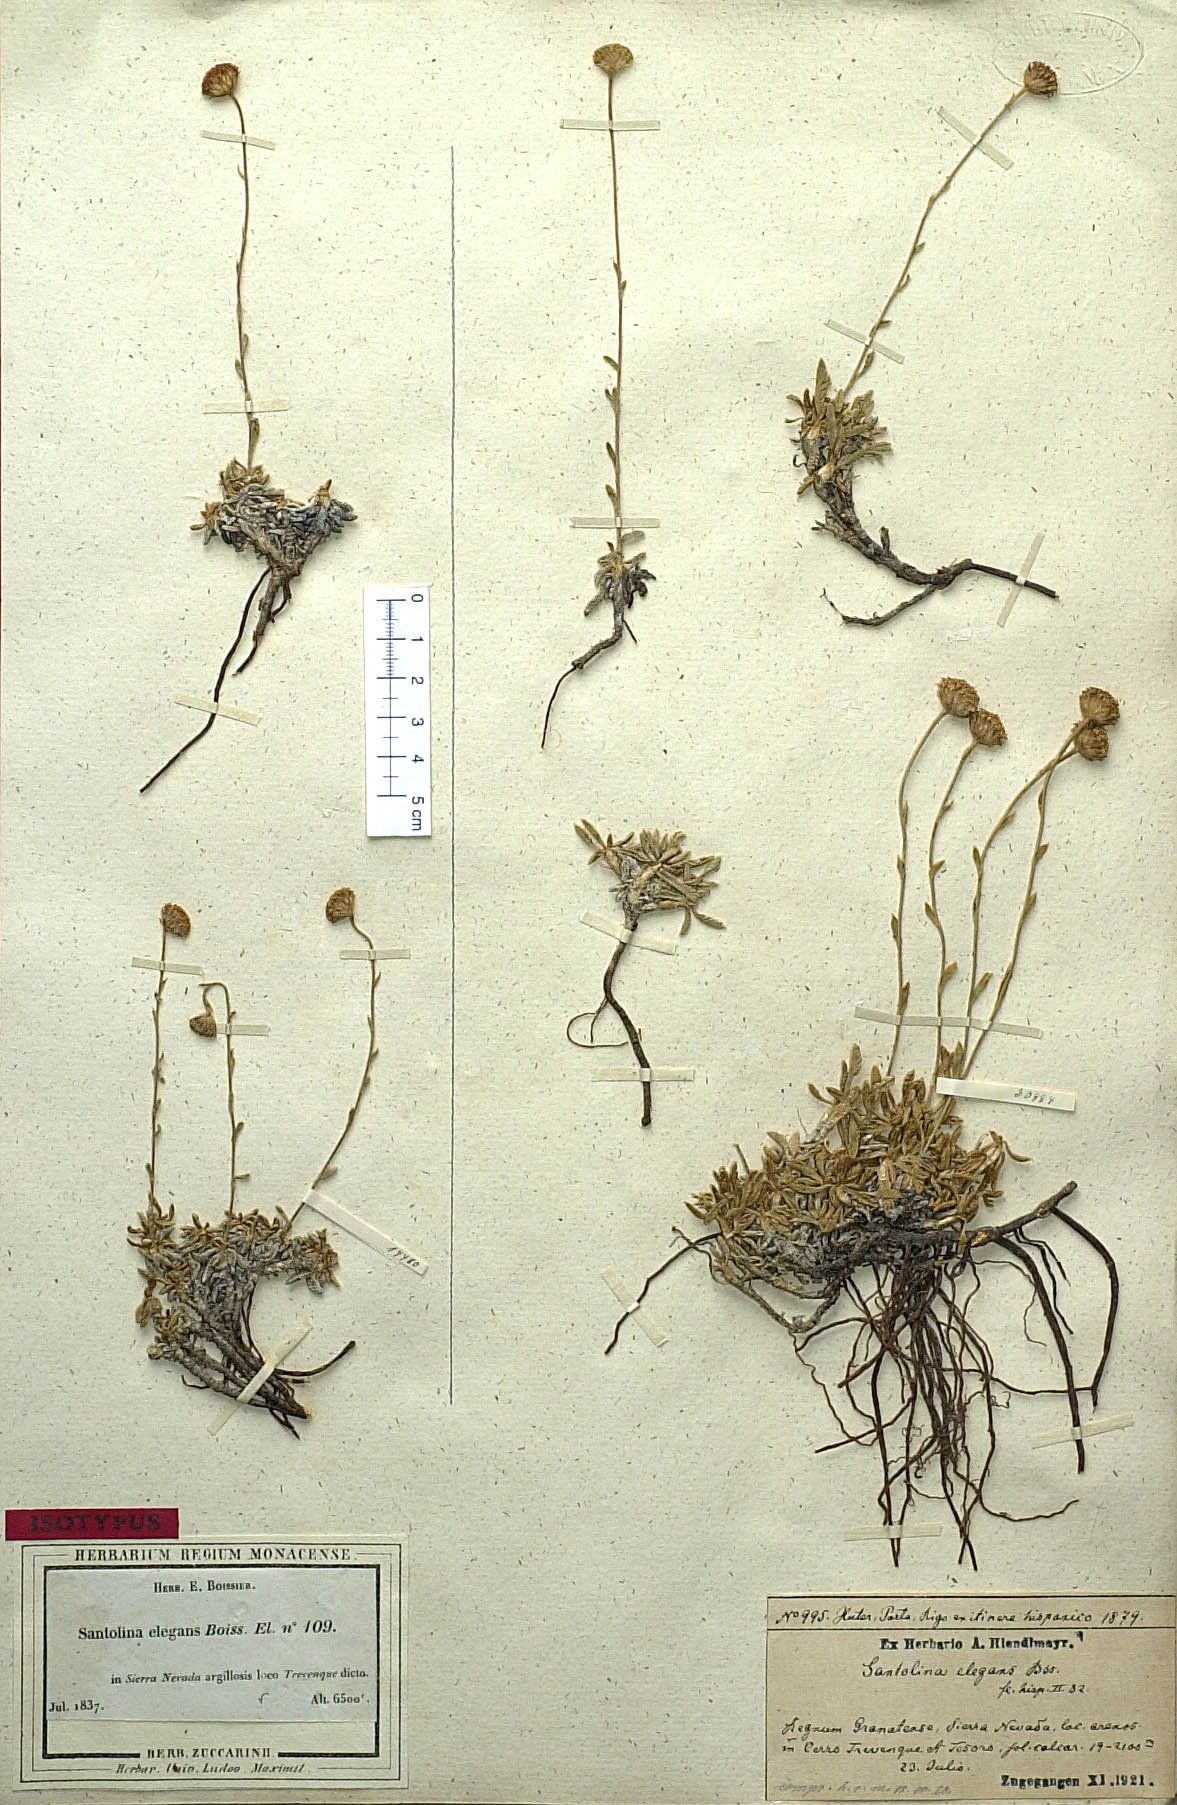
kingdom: Plantae
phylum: Tracheophyta
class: Magnoliopsida
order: Asterales
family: Asteraceae
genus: Santolina
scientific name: Santolina elegans
